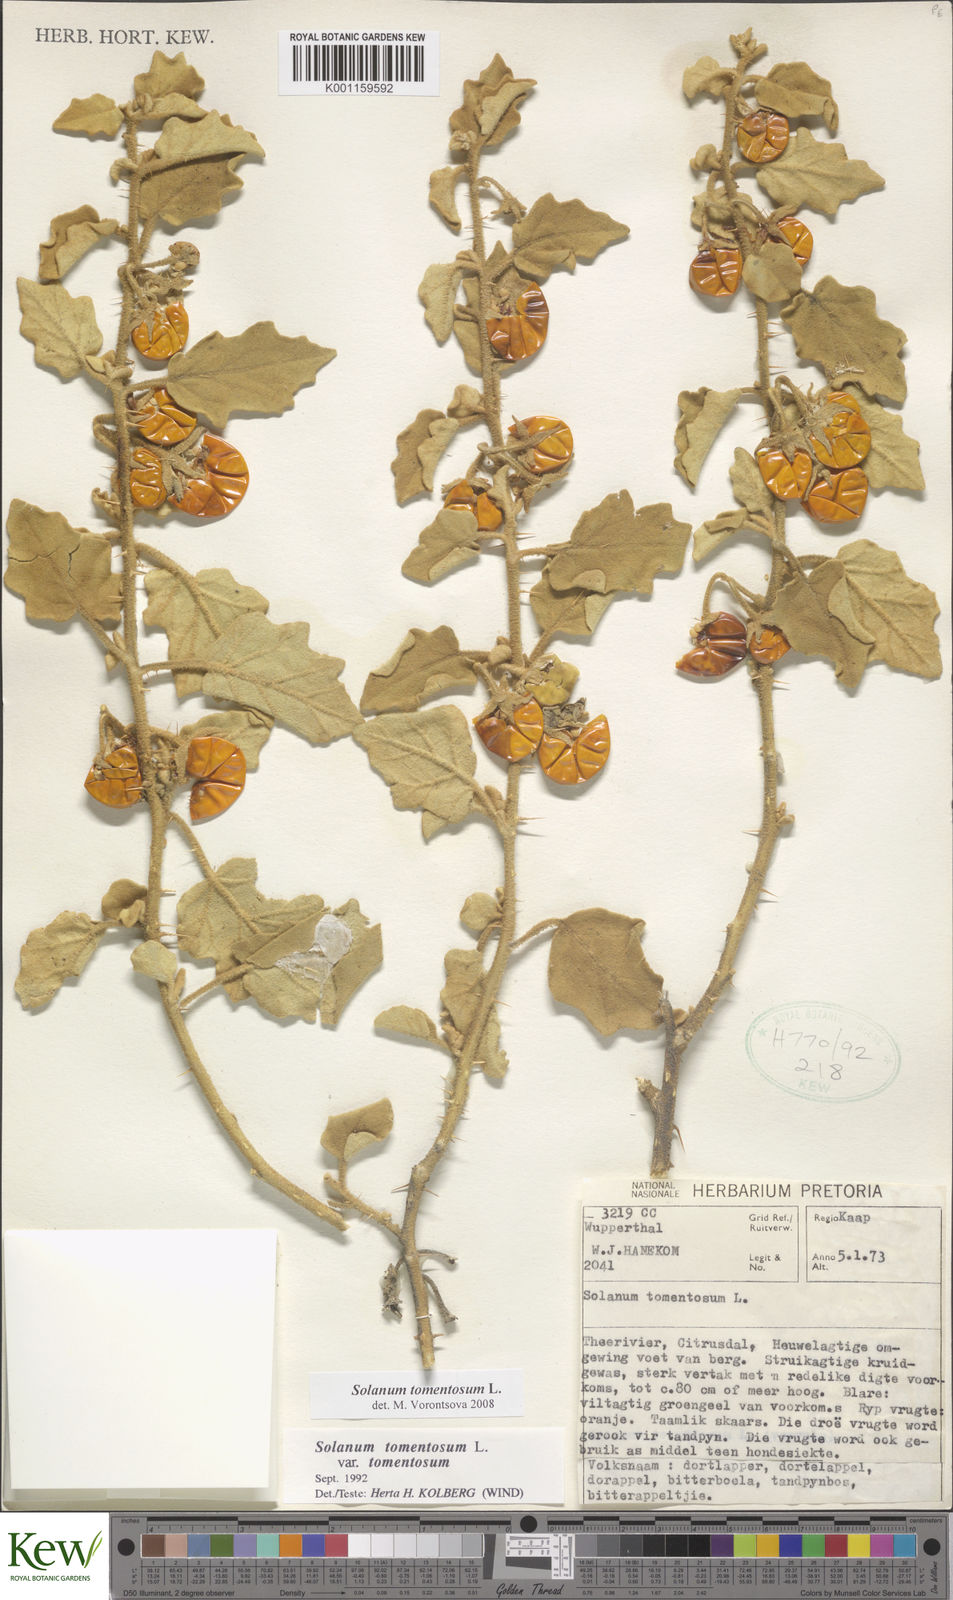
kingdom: Plantae
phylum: Tracheophyta
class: Magnoliopsida
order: Solanales
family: Solanaceae
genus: Solanum
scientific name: Solanum tomentosum
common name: Wild aubergine
